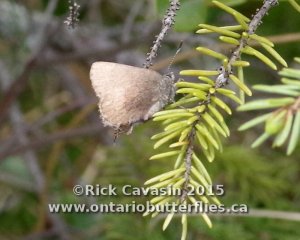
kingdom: Animalia
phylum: Arthropoda
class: Insecta
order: Lepidoptera
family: Lycaenidae
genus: Incisalia
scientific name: Incisalia irioides
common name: Brown Elfin
